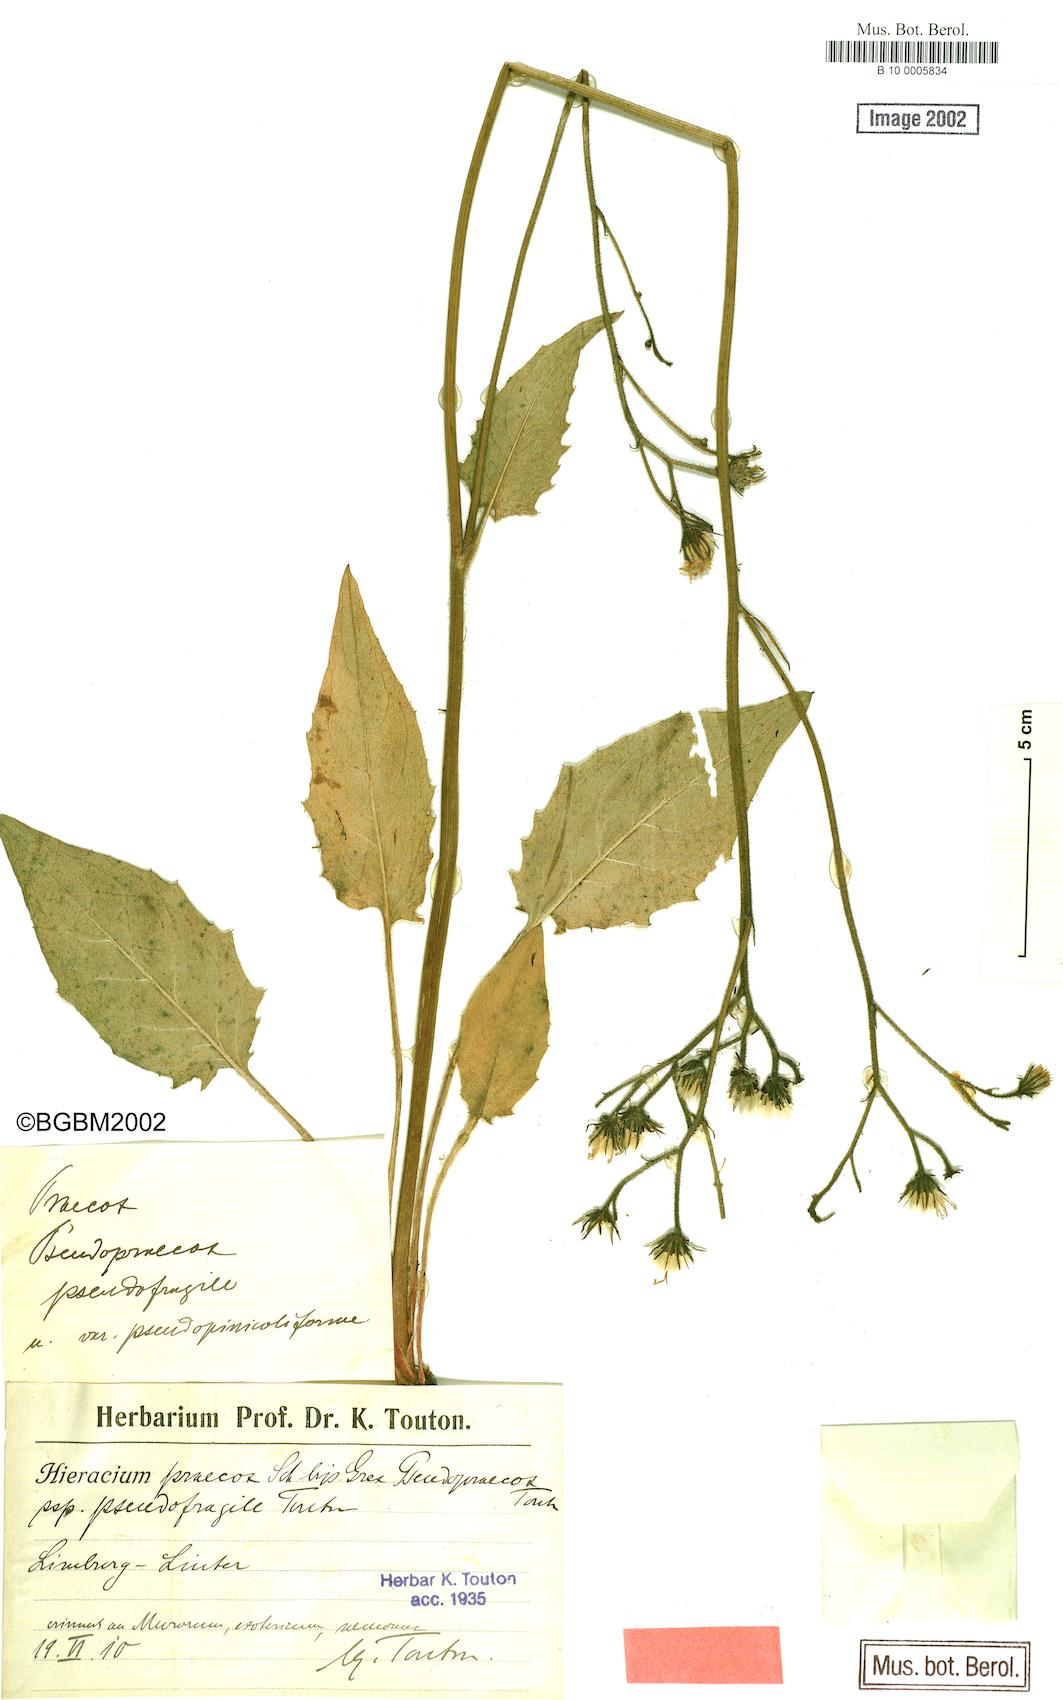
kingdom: Plantae
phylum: Tracheophyta
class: Magnoliopsida
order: Asterales
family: Asteraceae
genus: Hieracium
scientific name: Hieracium glaucinum
